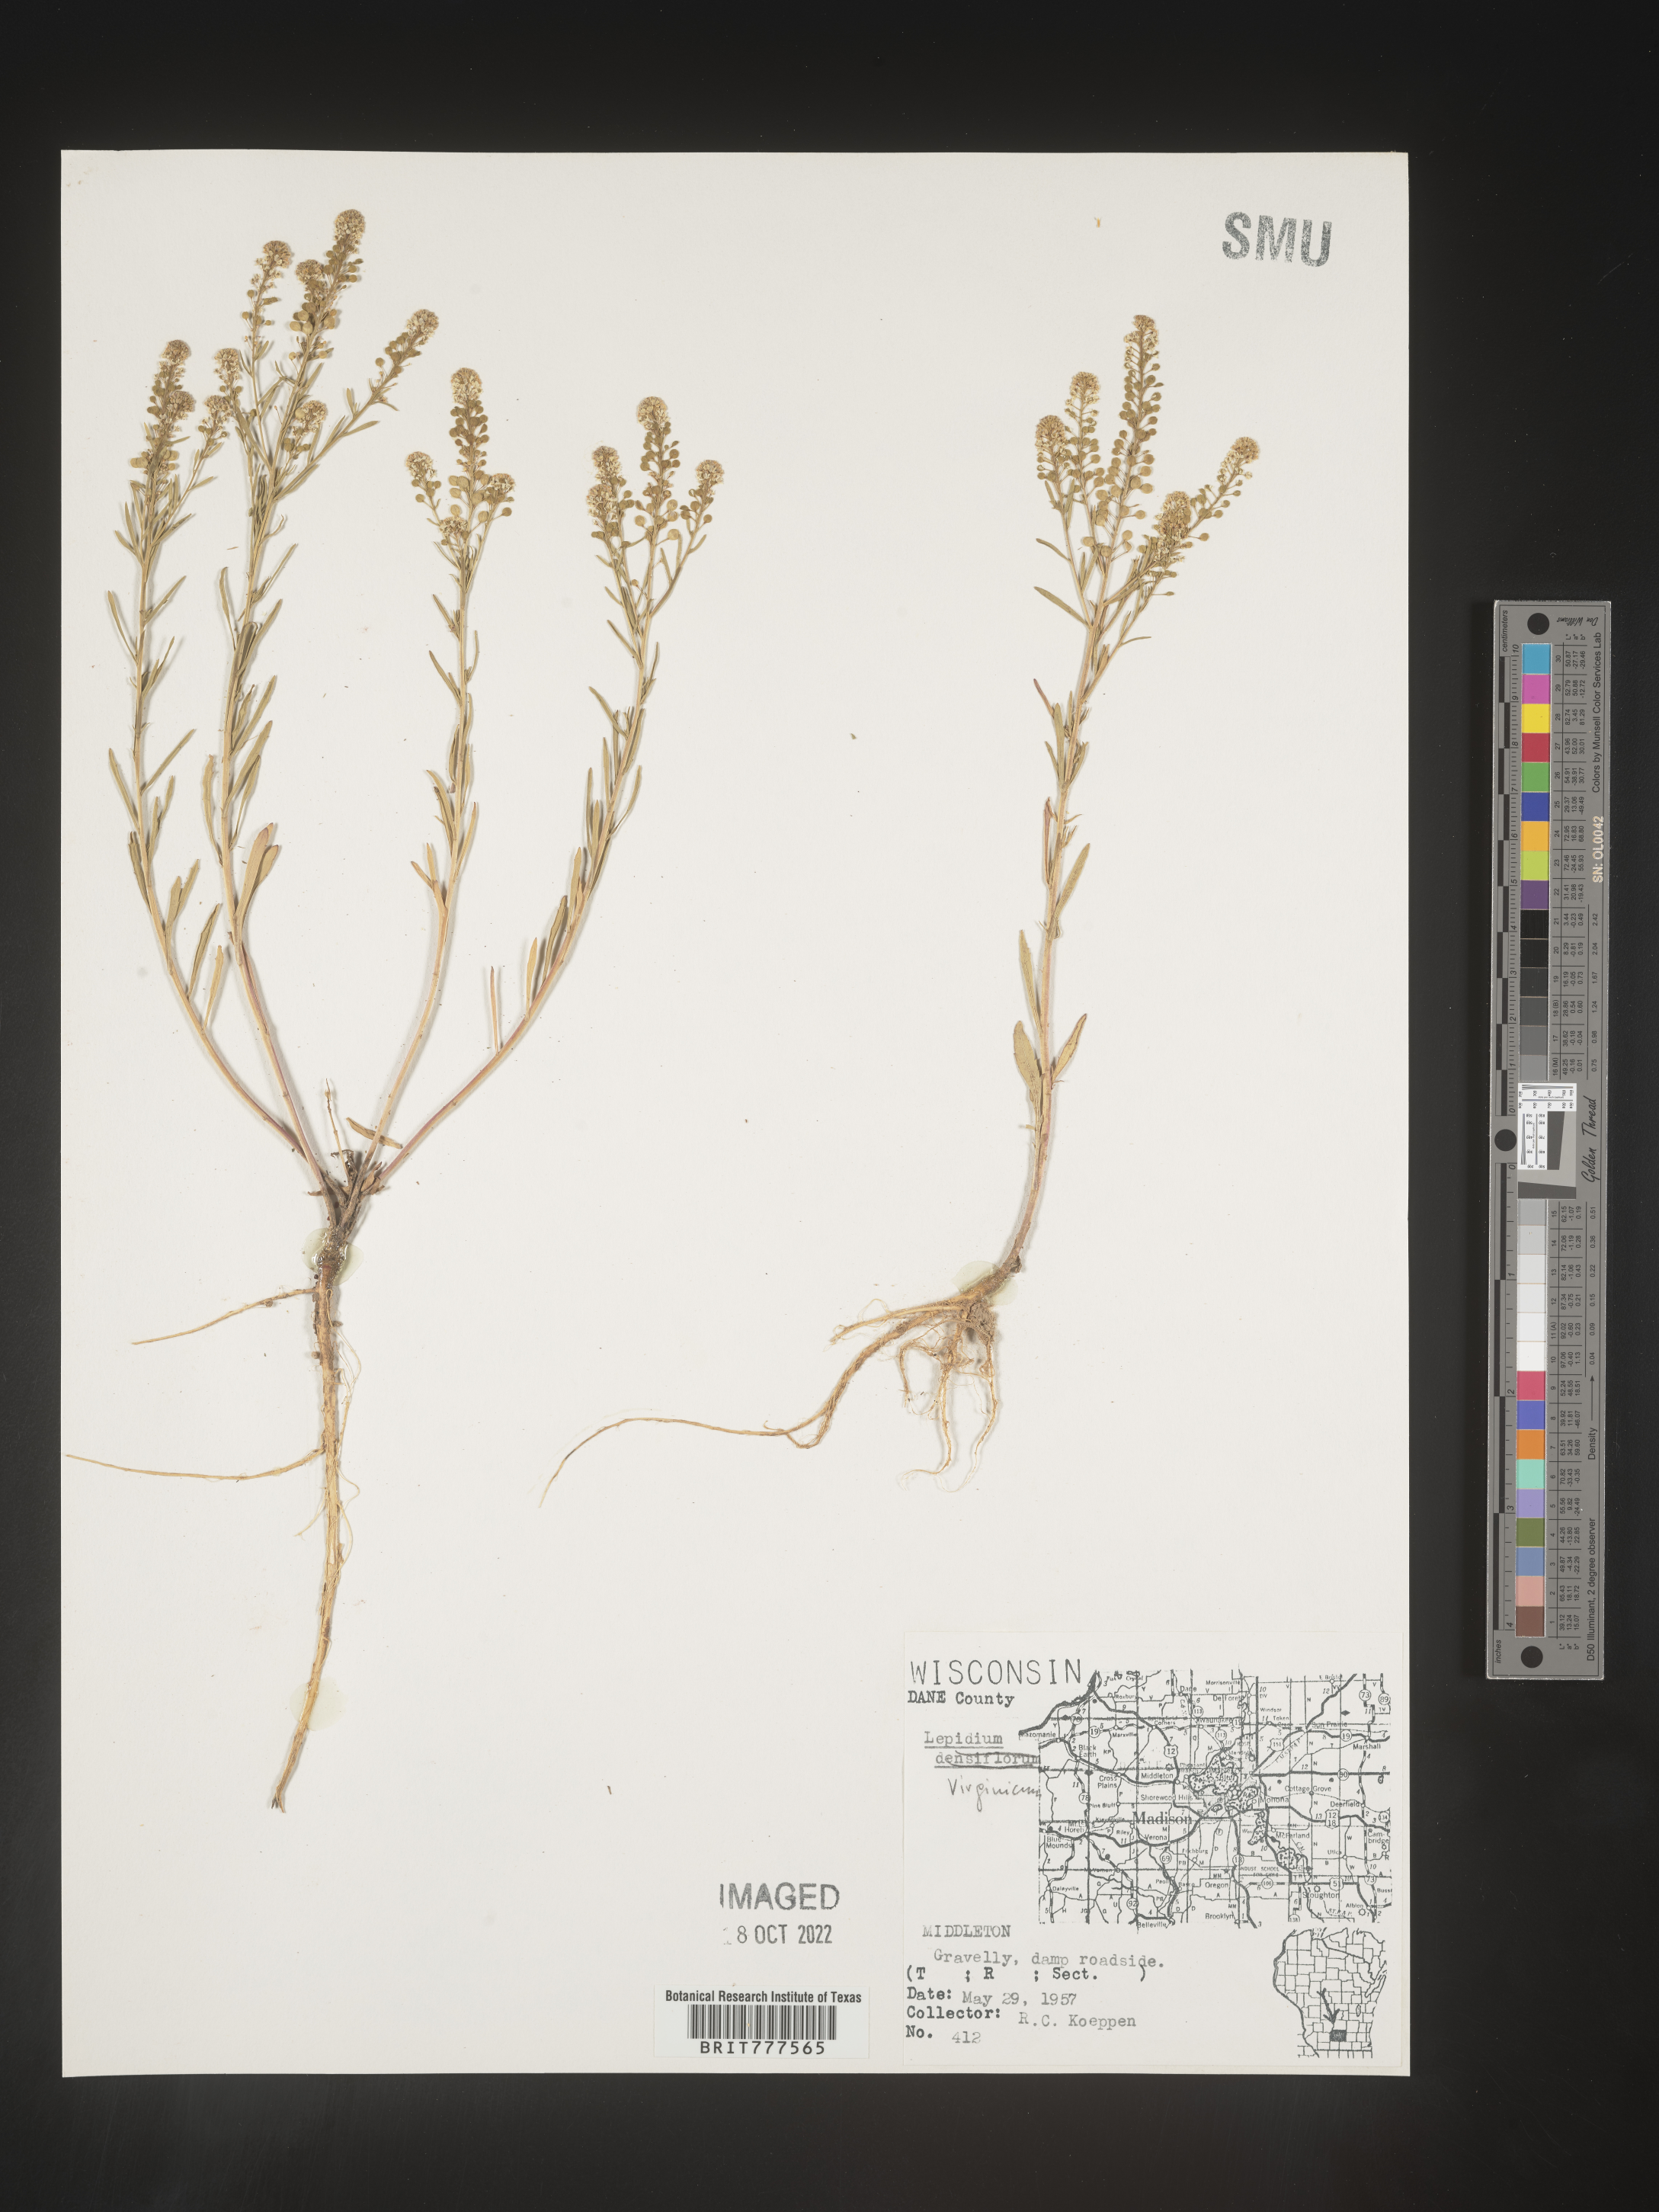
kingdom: Plantae
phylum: Tracheophyta
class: Magnoliopsida
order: Brassicales
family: Brassicaceae
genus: Lepidium
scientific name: Lepidium virginicum
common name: Least pepperwort
